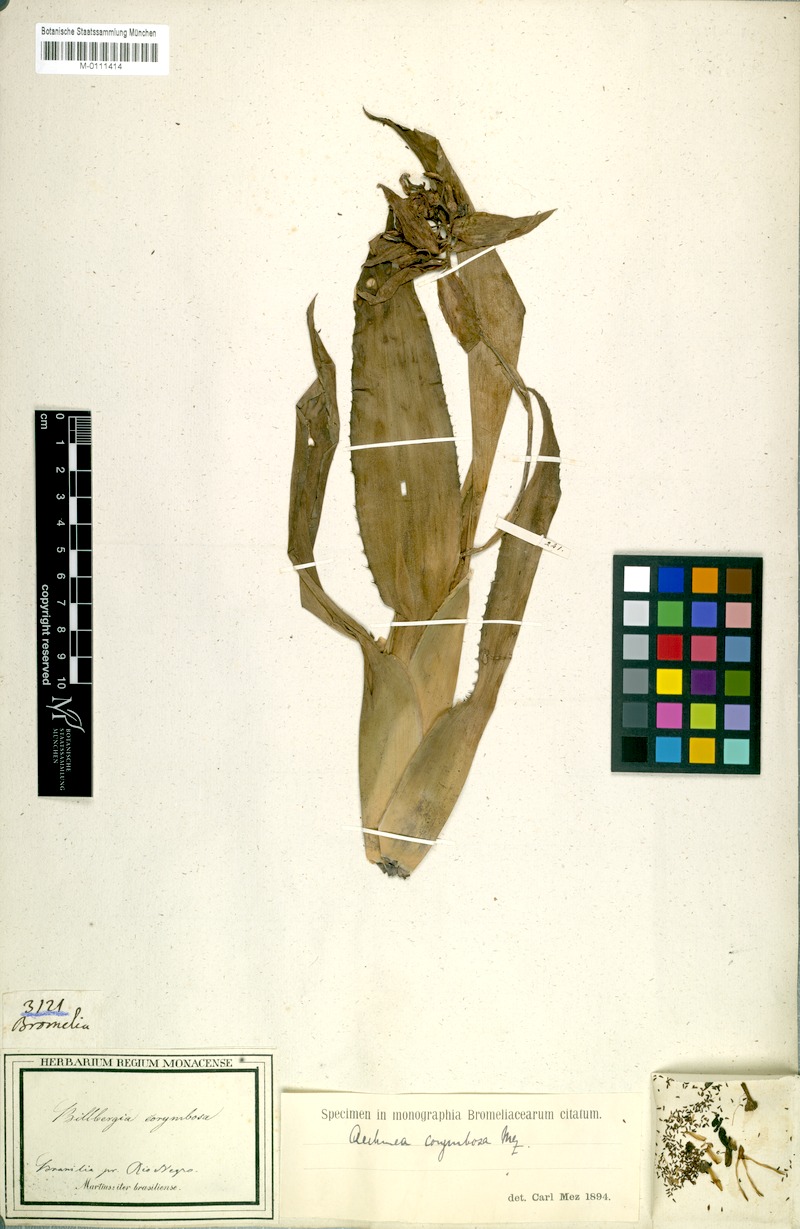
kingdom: Plantae
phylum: Tracheophyta
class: Liliopsida
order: Poales
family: Bromeliaceae
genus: Aechmea
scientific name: Aechmea corymbosa
